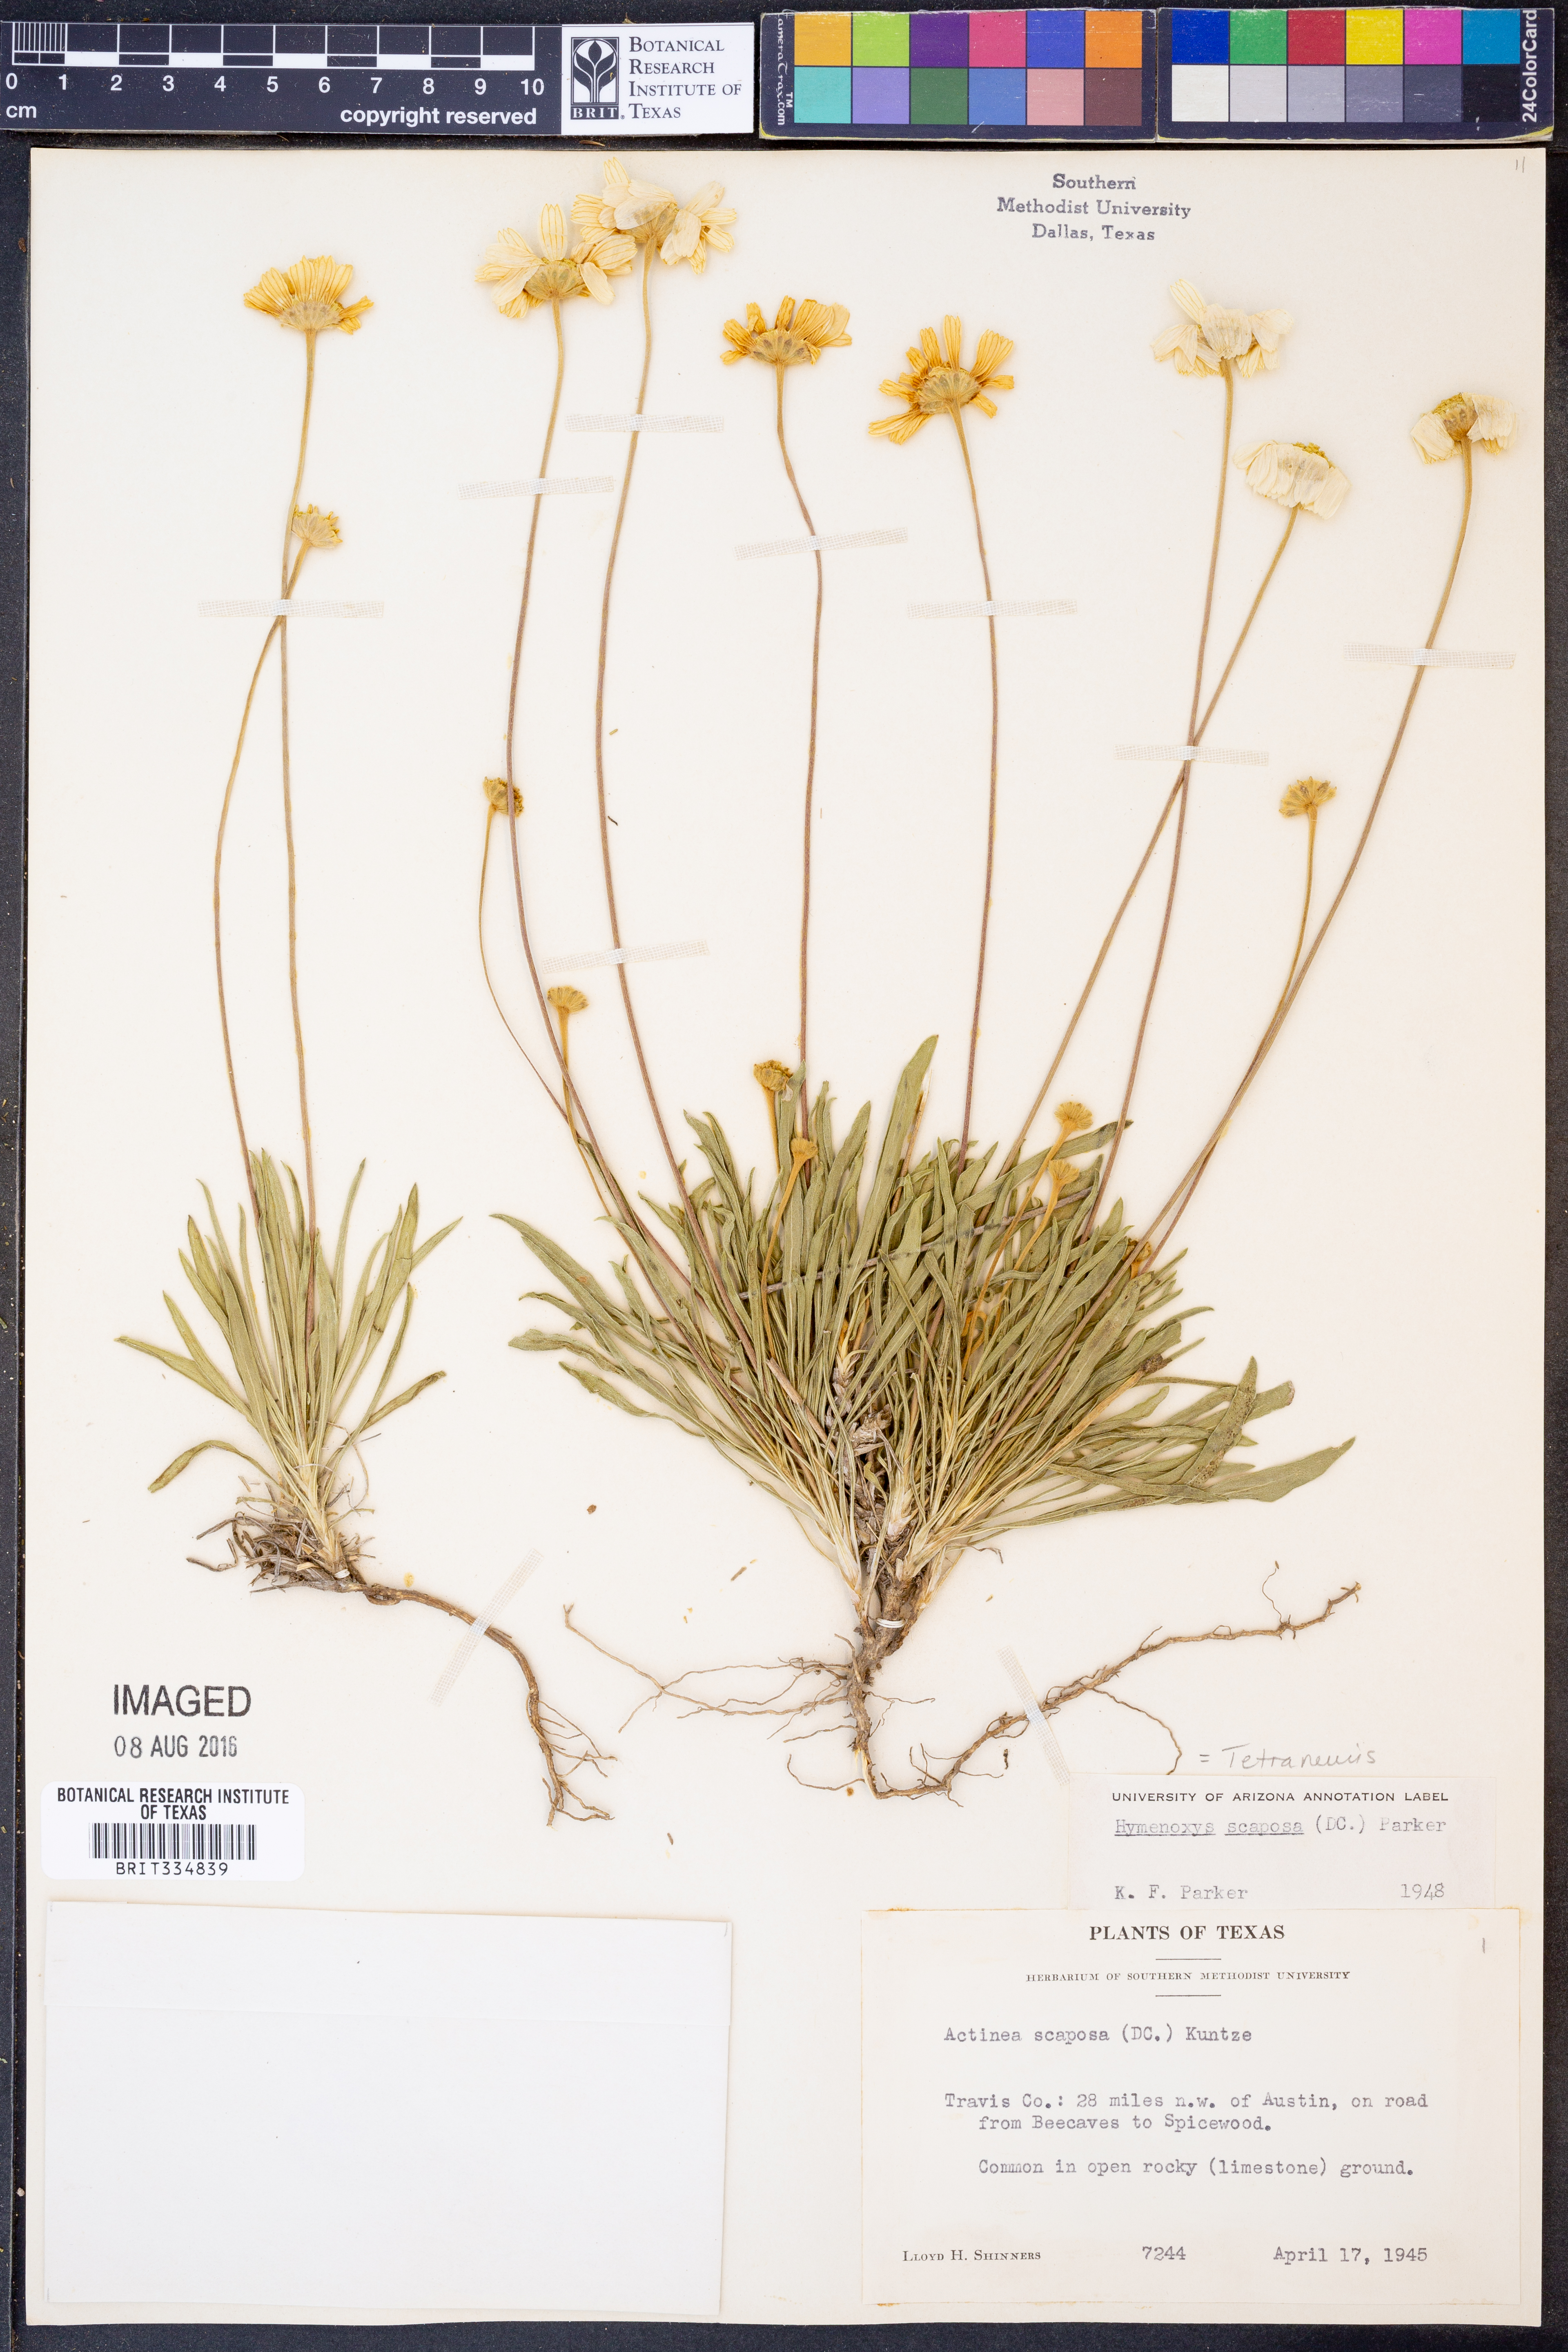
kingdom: Plantae
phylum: Tracheophyta
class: Magnoliopsida
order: Asterales
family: Asteraceae
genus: Tetraneuris
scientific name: Tetraneuris scaposa
